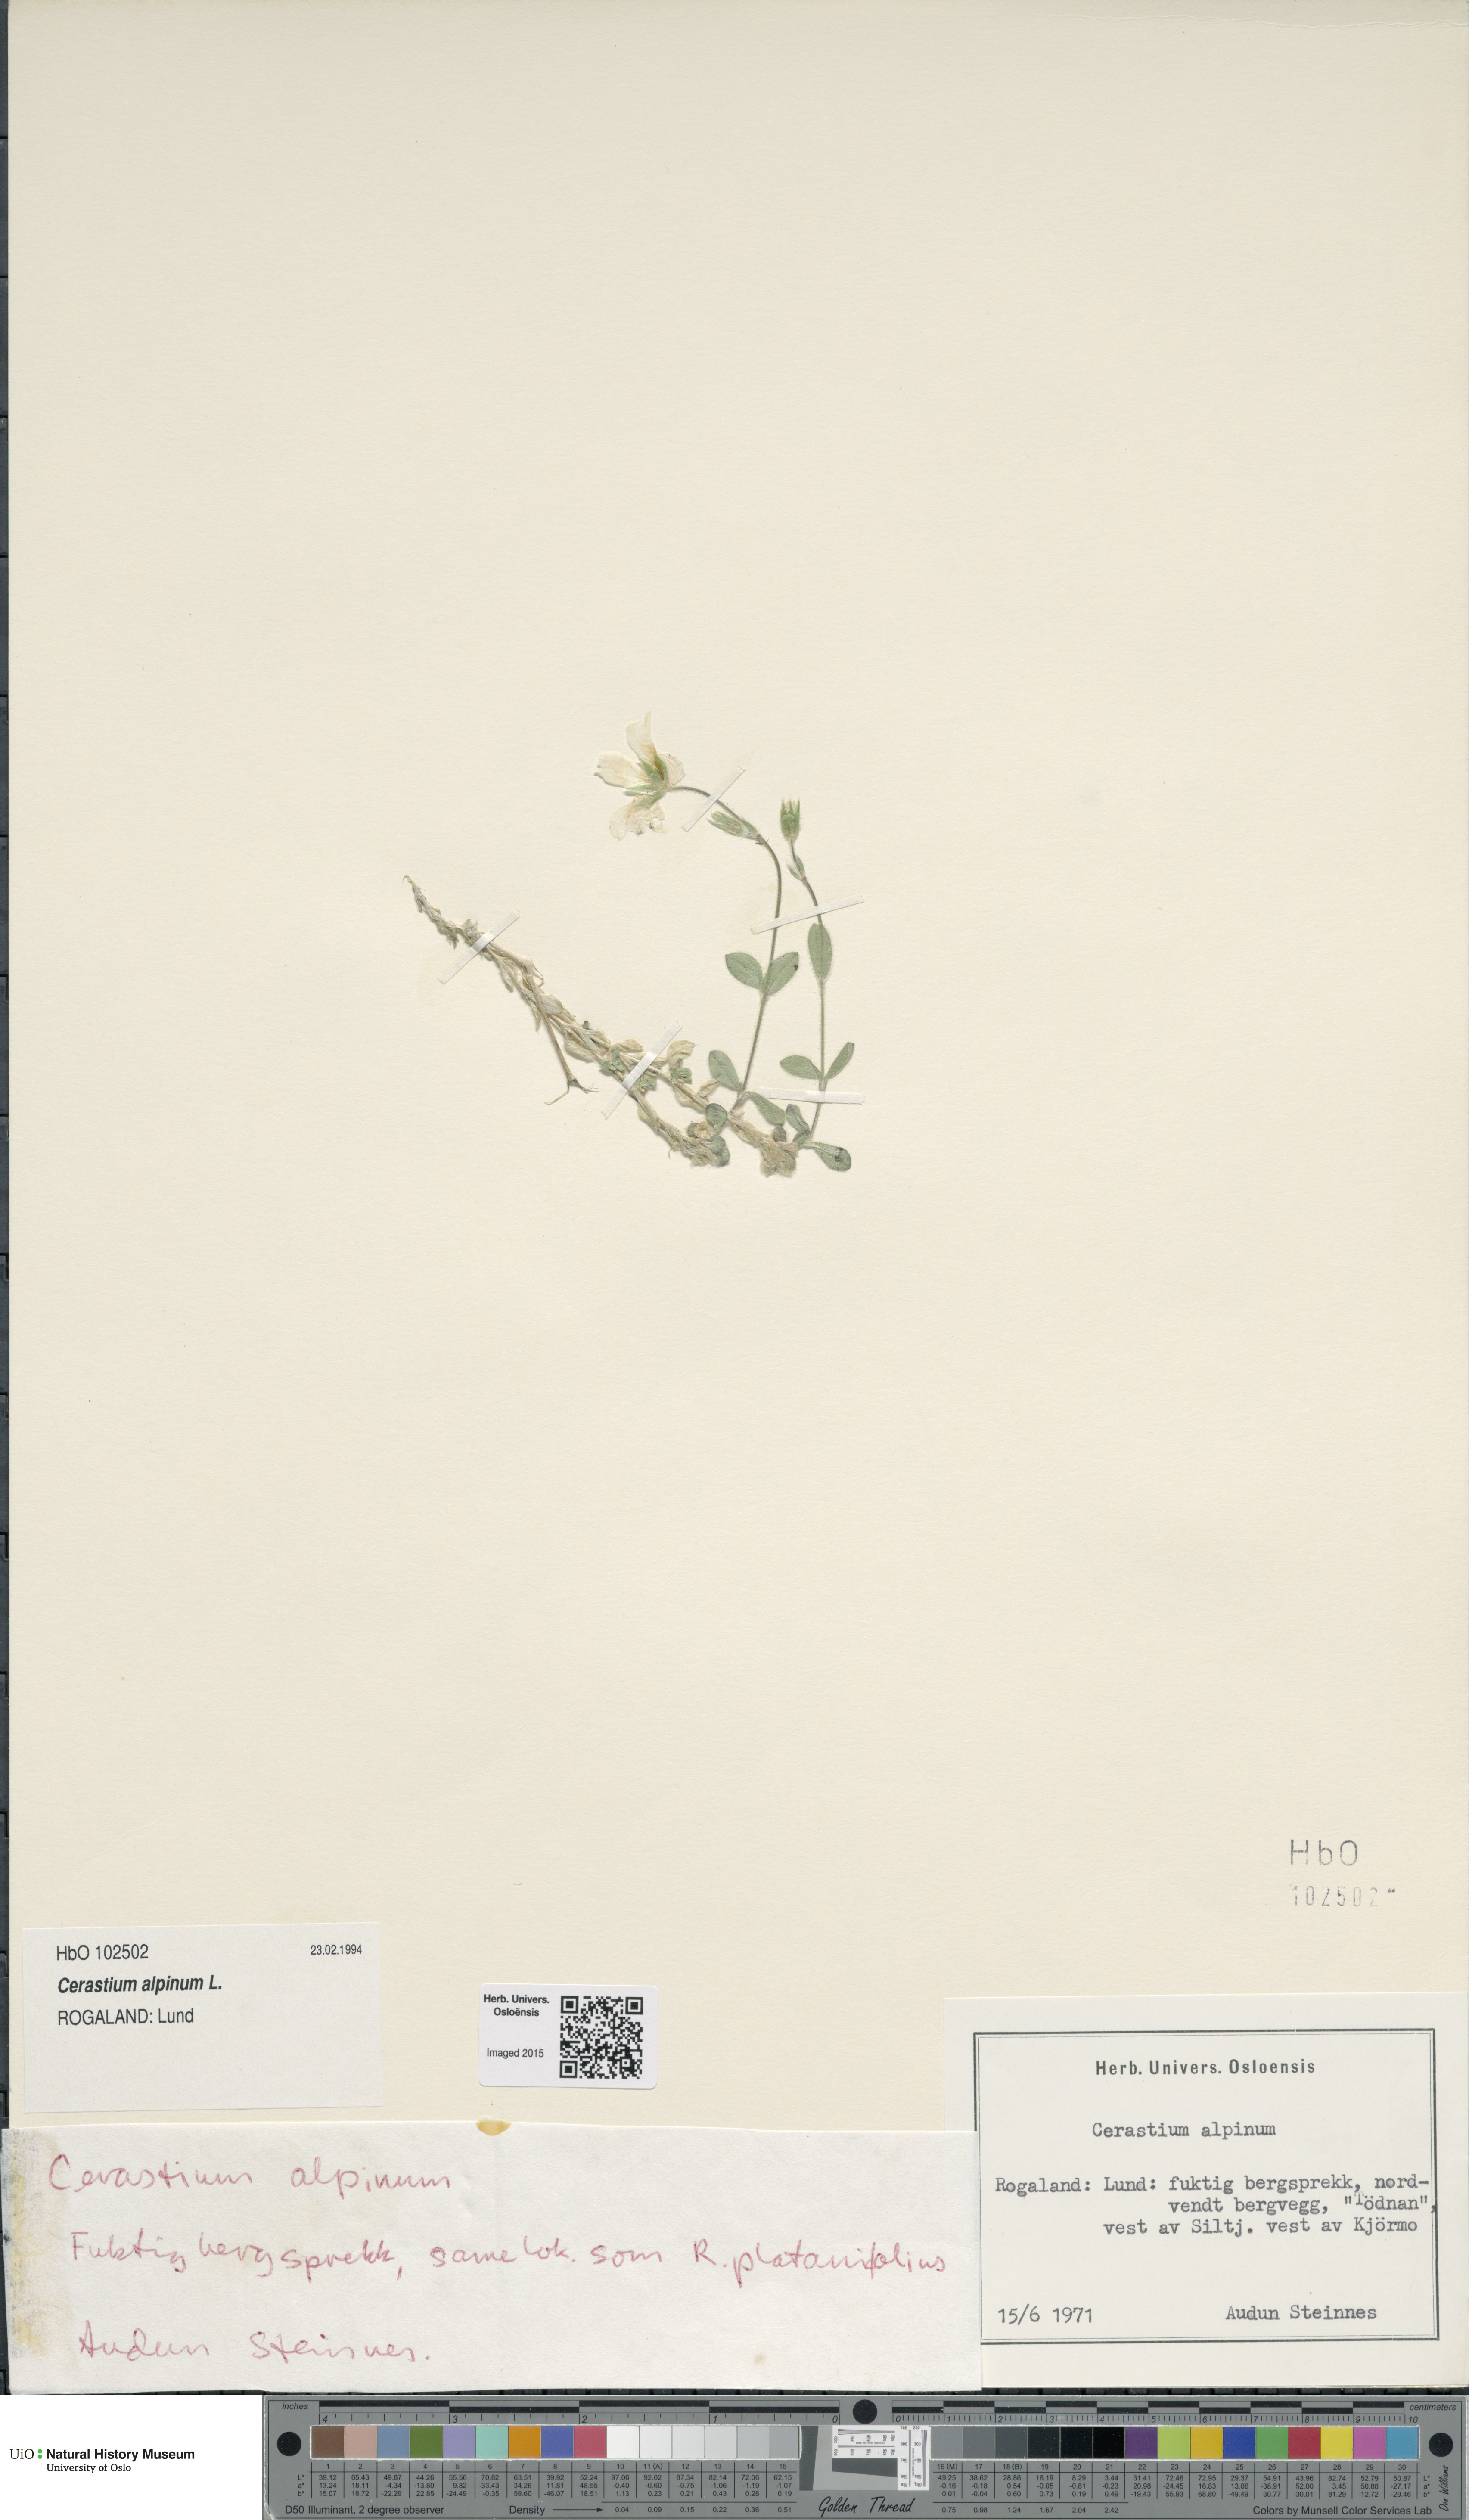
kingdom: Plantae
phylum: Tracheophyta
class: Magnoliopsida
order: Caryophyllales
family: Caryophyllaceae
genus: Cerastium
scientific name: Cerastium alpinum
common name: Alpine mouse-ear
